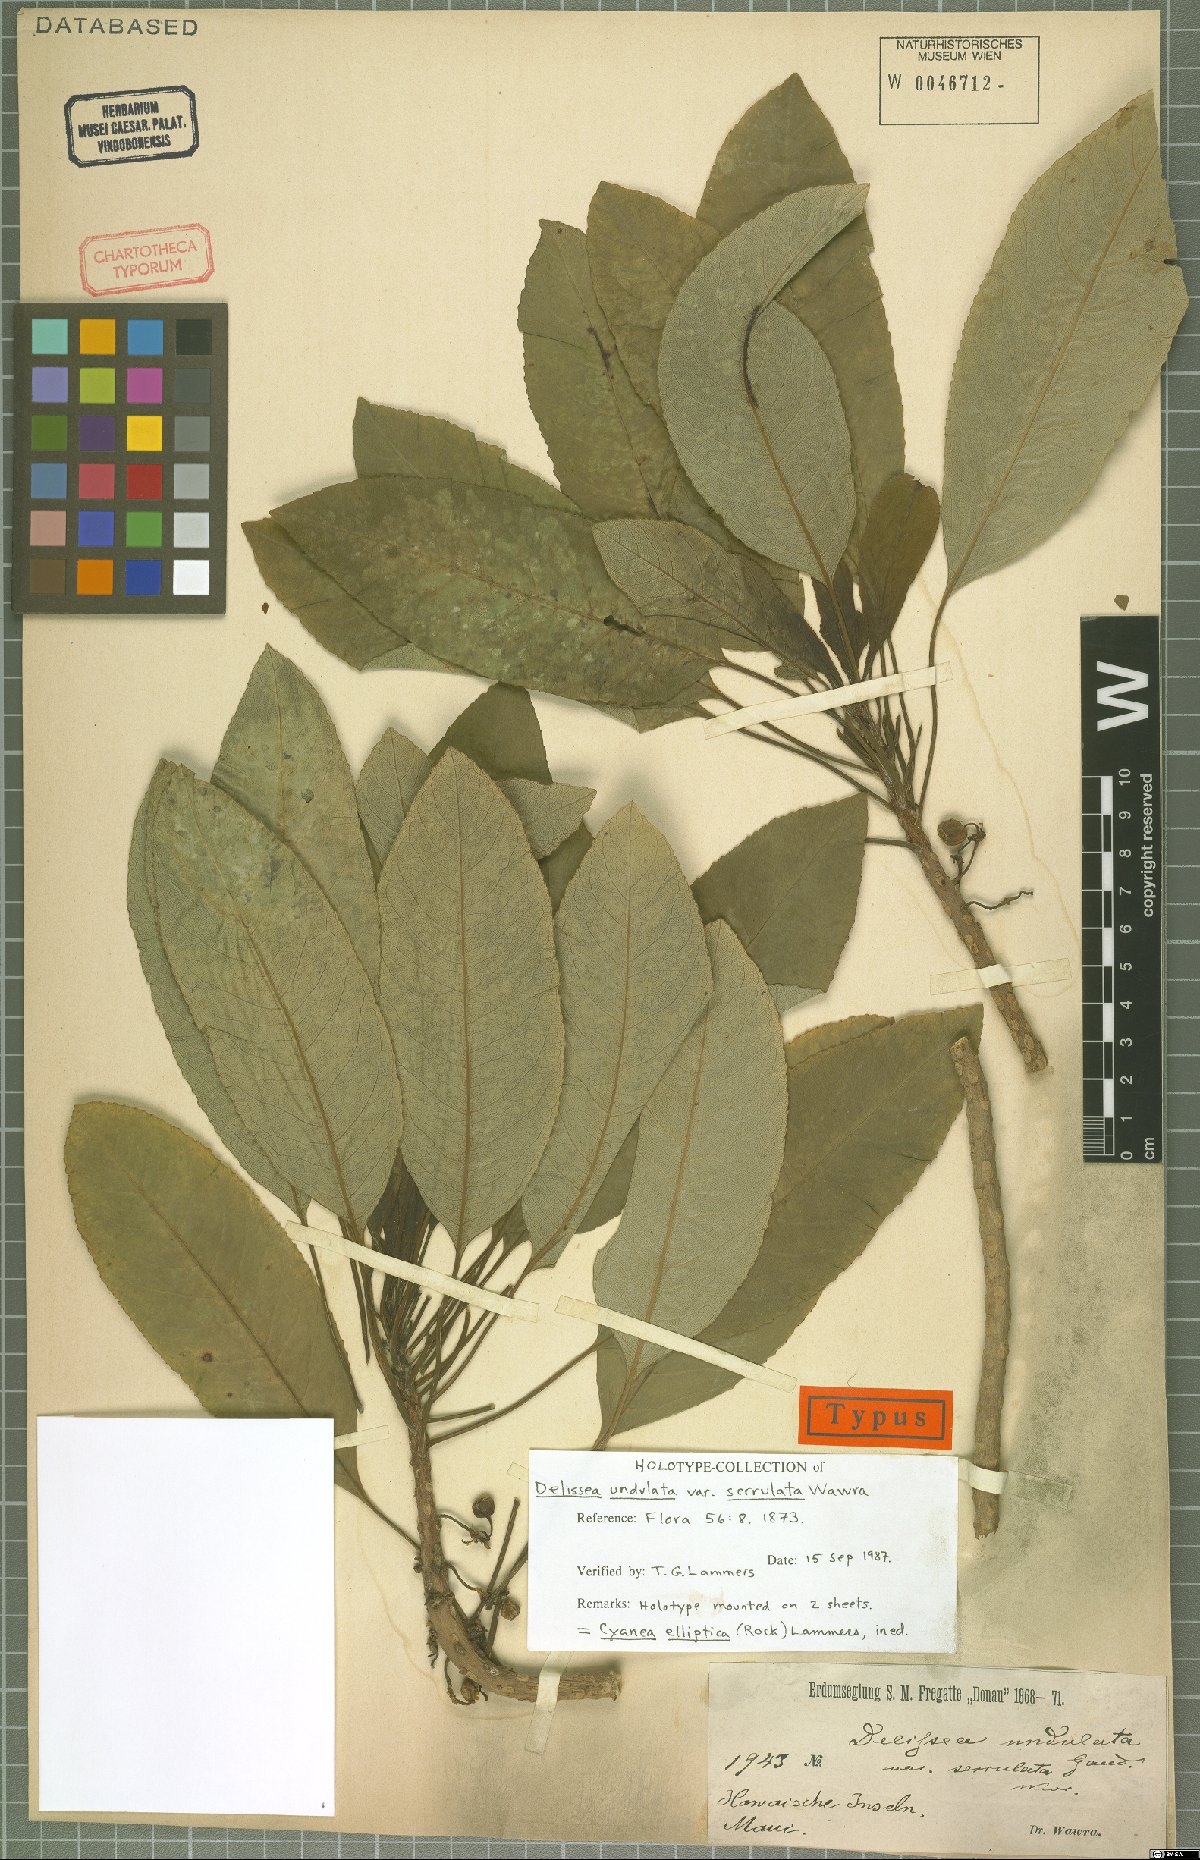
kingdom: Plantae
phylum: Tracheophyta
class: Magnoliopsida
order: Asterales
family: Campanulaceae
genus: Cyanea
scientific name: Cyanea elliptica
